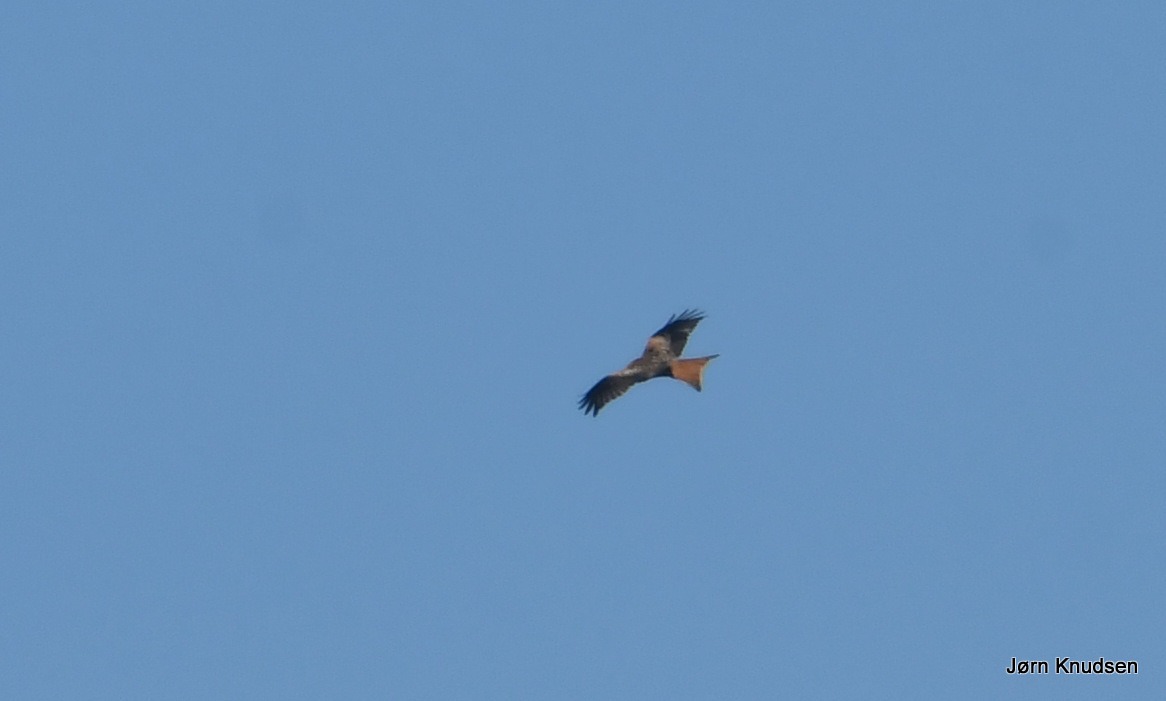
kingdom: Animalia
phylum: Chordata
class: Aves
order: Accipitriformes
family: Accipitridae
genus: Milvus
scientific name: Milvus milvus
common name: Rød glente
